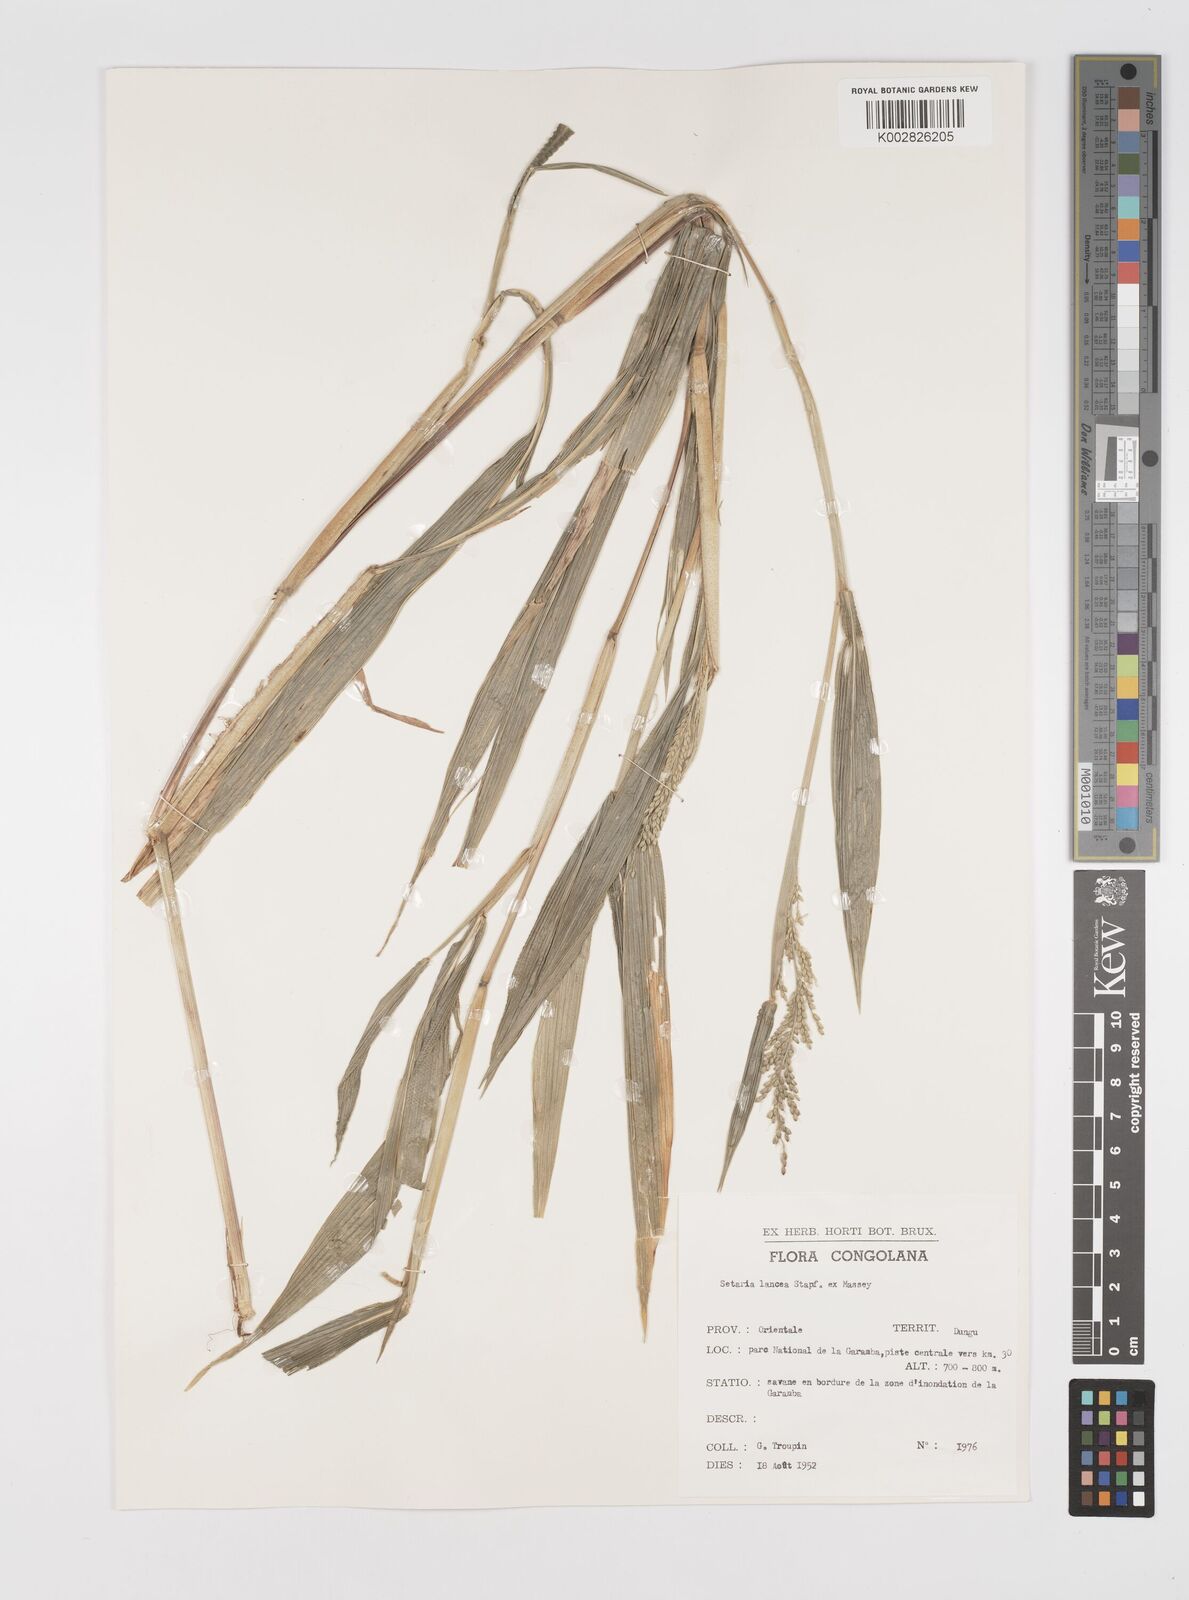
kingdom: Plantae
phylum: Tracheophyta
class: Liliopsida
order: Poales
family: Poaceae
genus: Setaria
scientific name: Setaria homonyma
